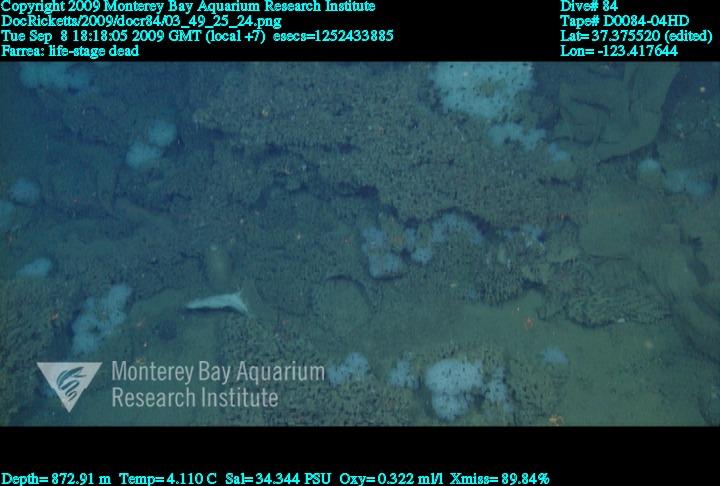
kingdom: Animalia
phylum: Porifera
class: Hexactinellida
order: Sceptrulophora
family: Farreidae
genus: Farrea
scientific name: Farrea
